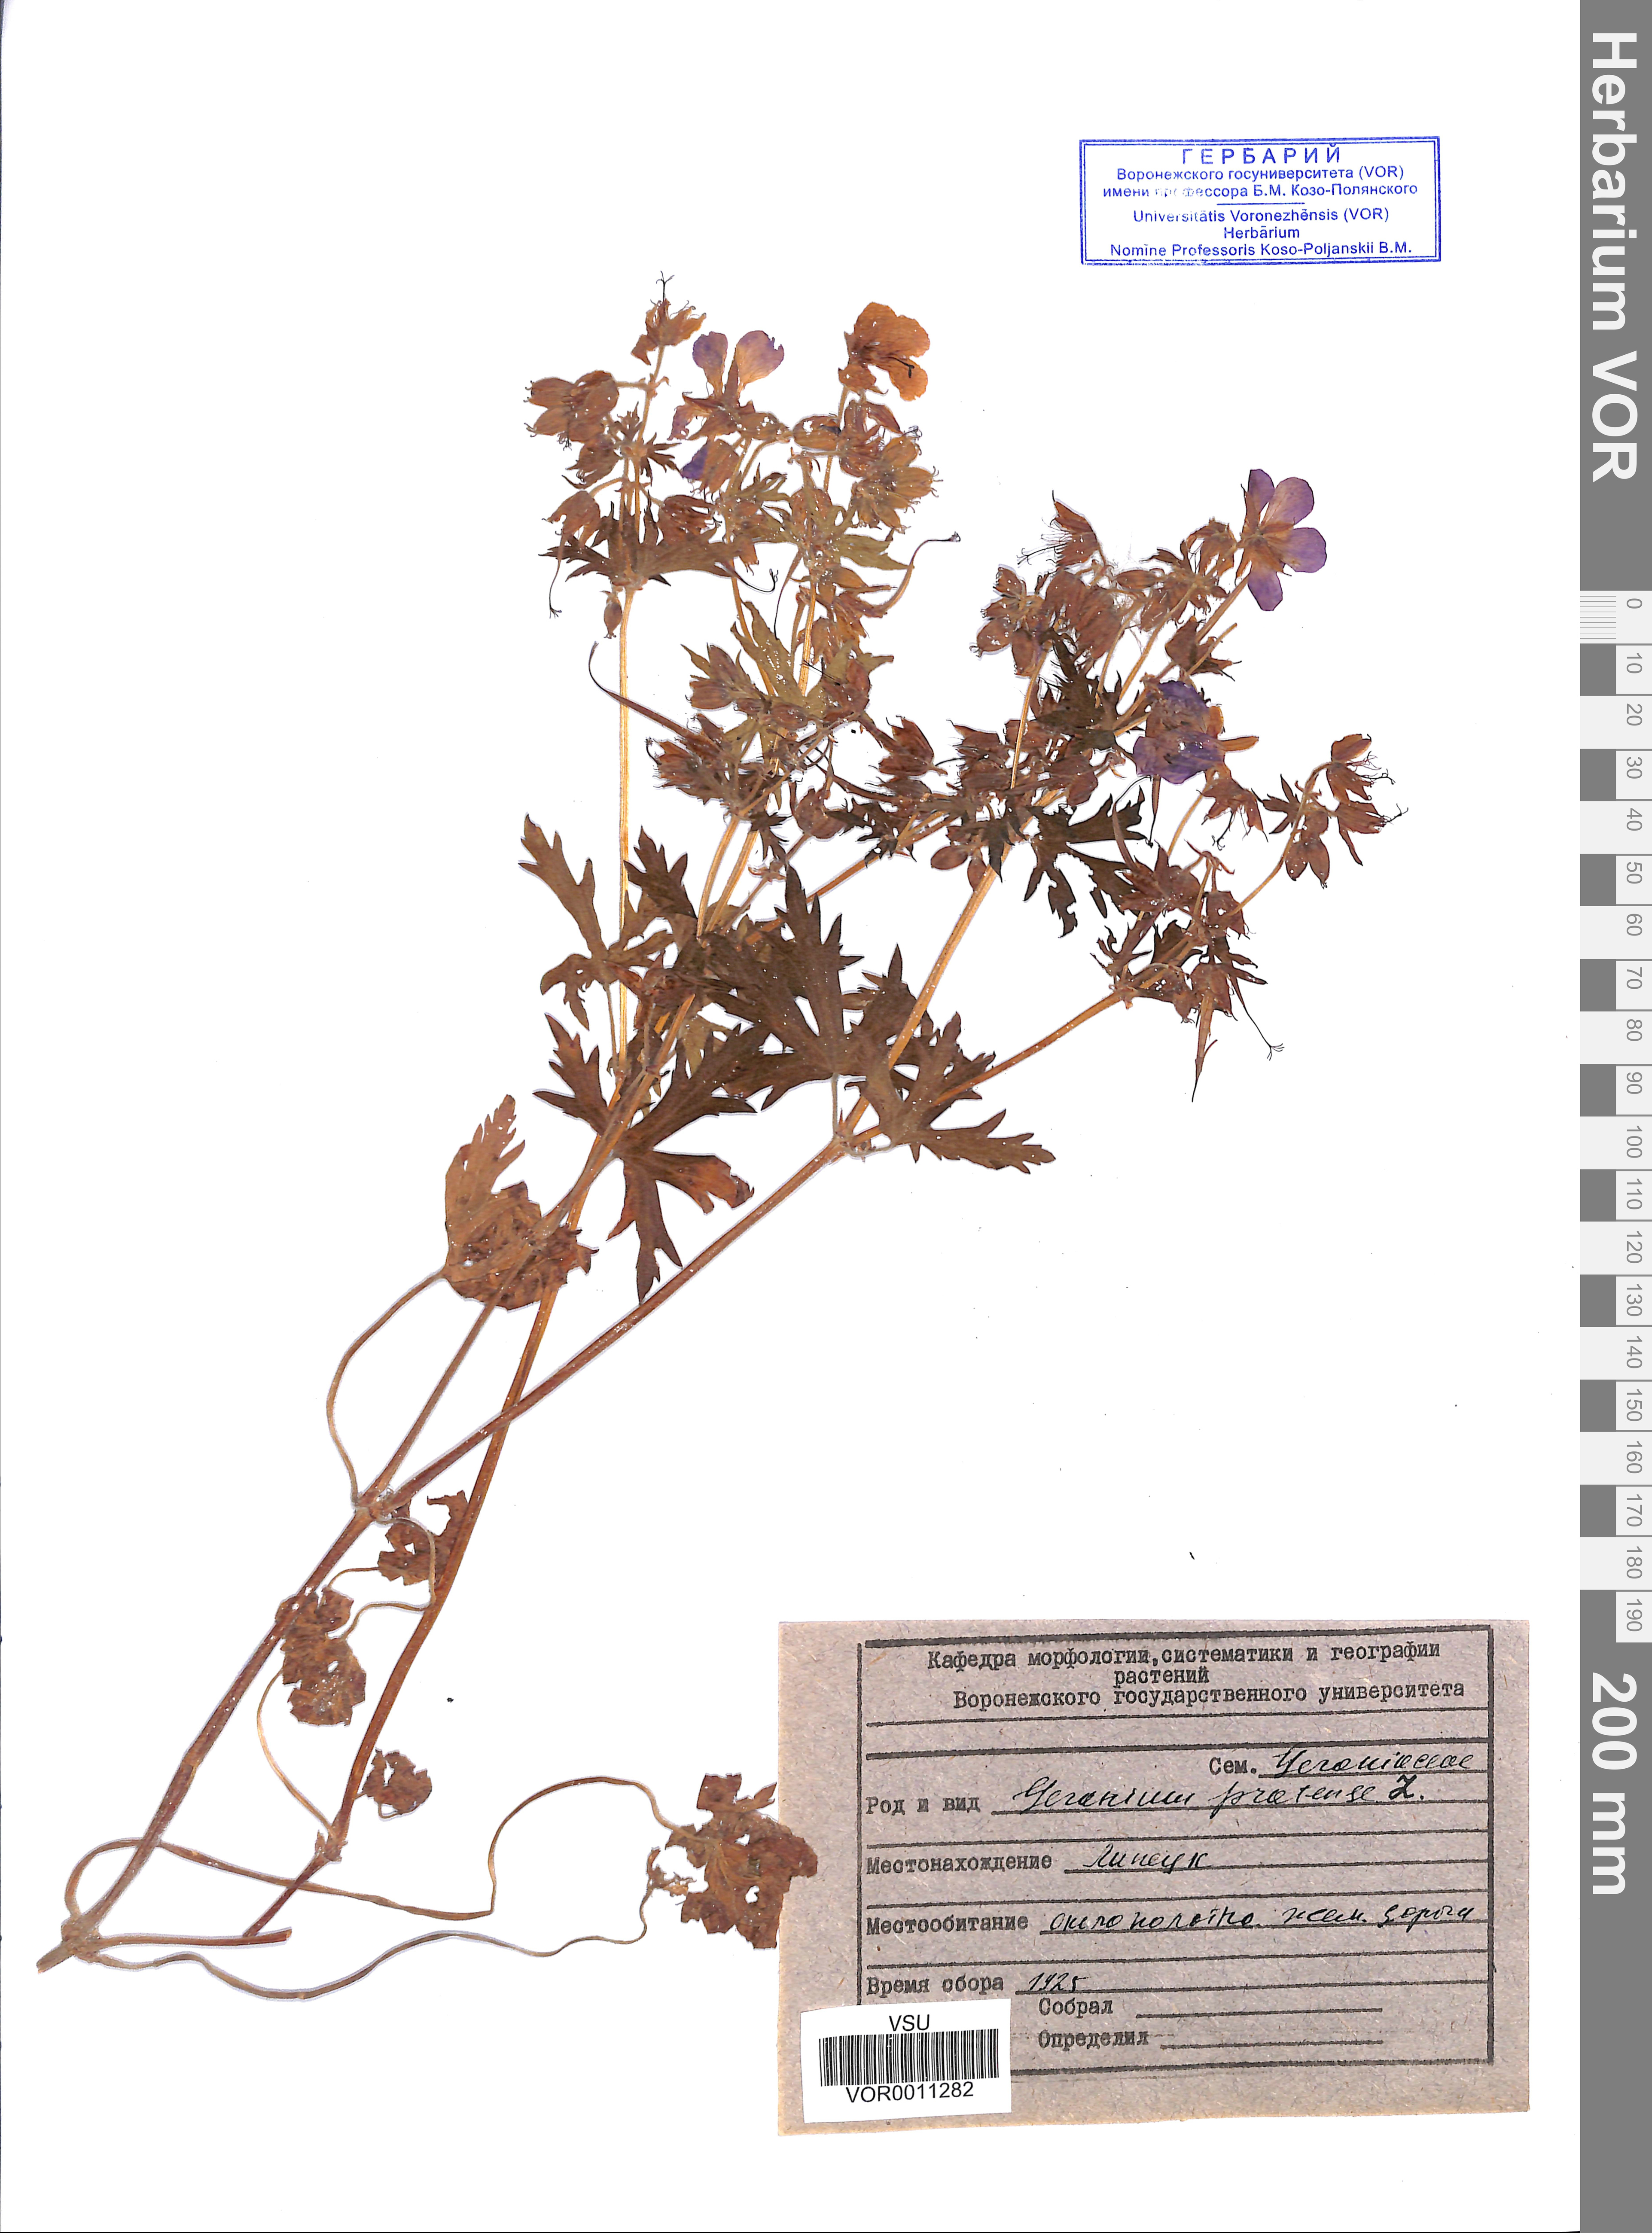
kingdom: Plantae
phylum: Tracheophyta
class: Magnoliopsida
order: Geraniales
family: Geraniaceae
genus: Geranium
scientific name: Geranium pratense
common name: Meadow crane's-bill
